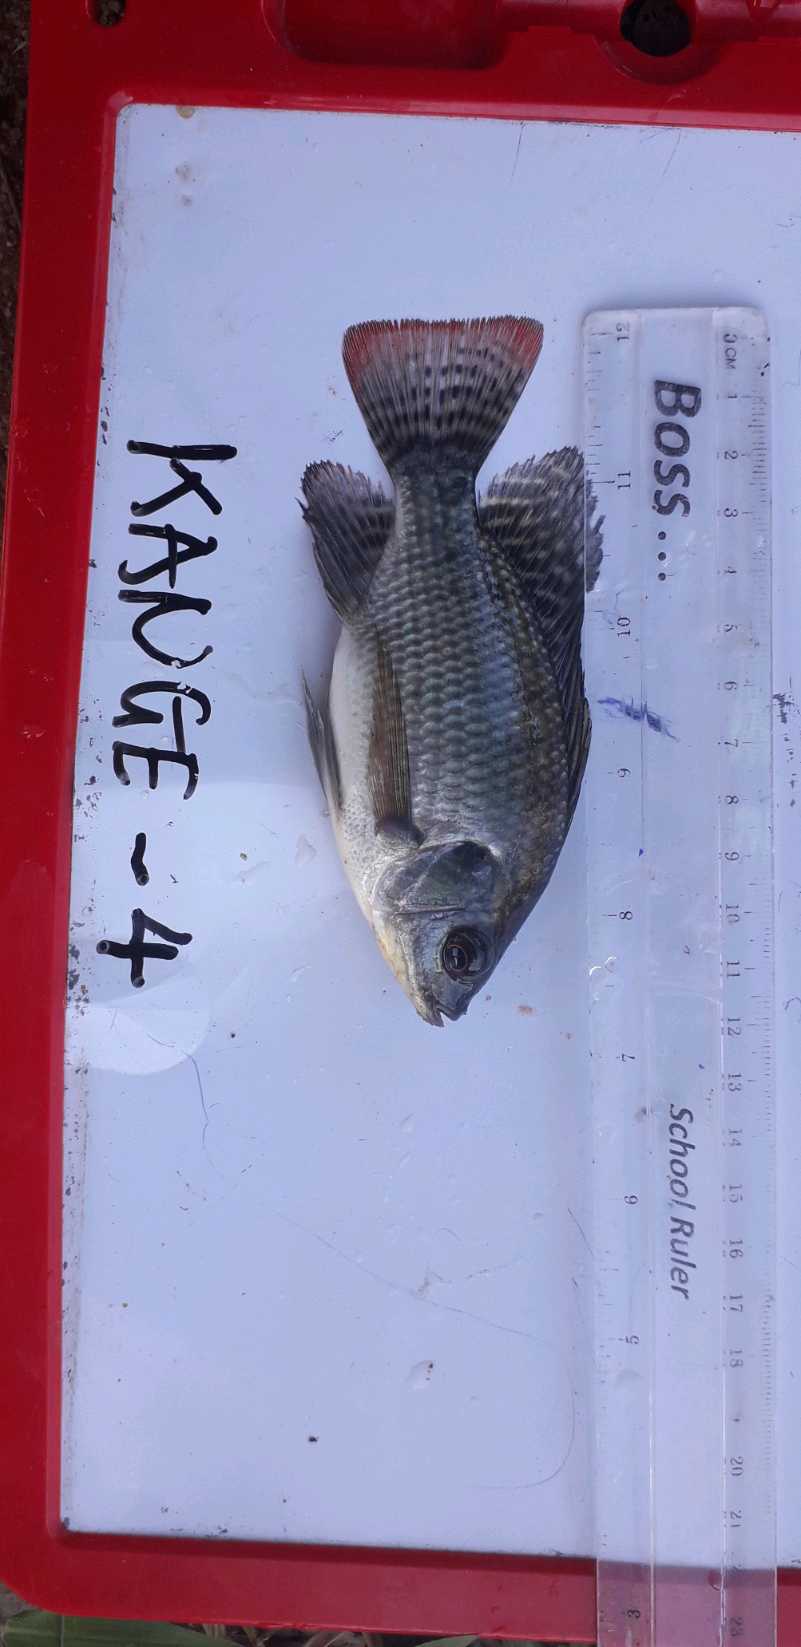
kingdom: Animalia
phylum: Chordata
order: Perciformes
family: Cichlidae
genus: Oreochromis
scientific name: Oreochromis niloticus
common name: Nile tilapia
